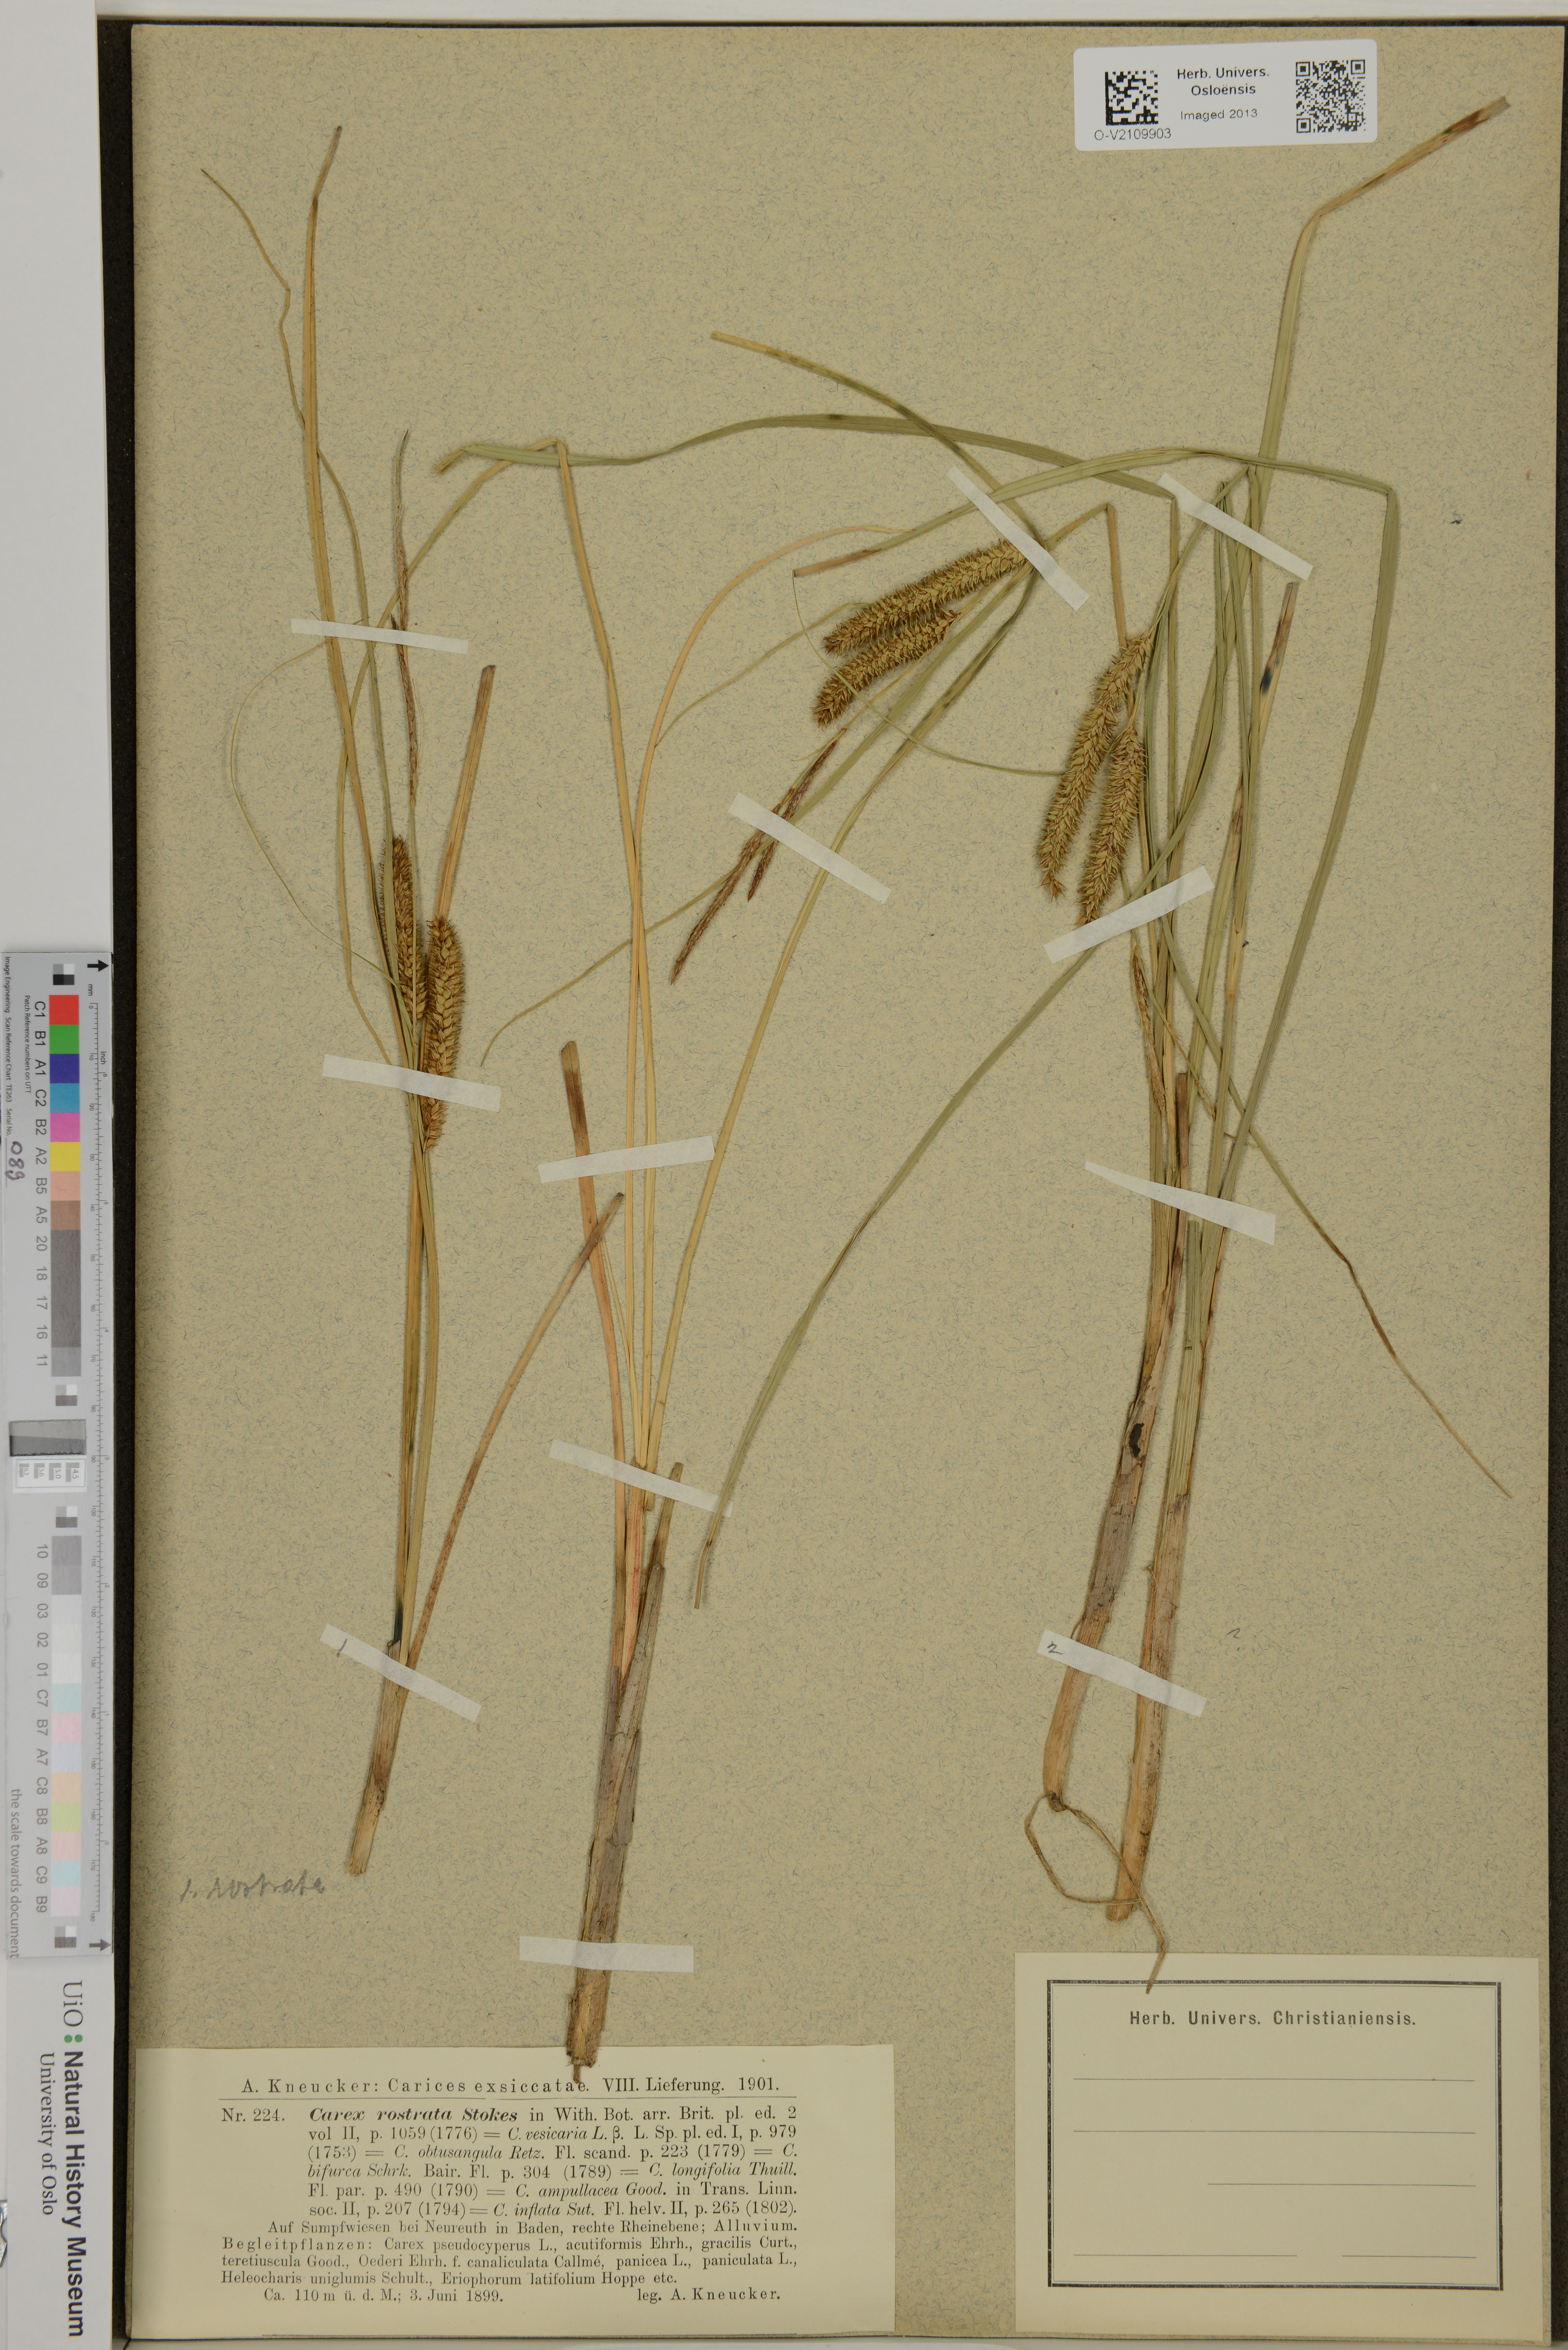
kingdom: Plantae
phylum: Tracheophyta
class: Liliopsida
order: Poales
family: Cyperaceae
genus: Carex
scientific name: Carex rostrata
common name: Bottle sedge
